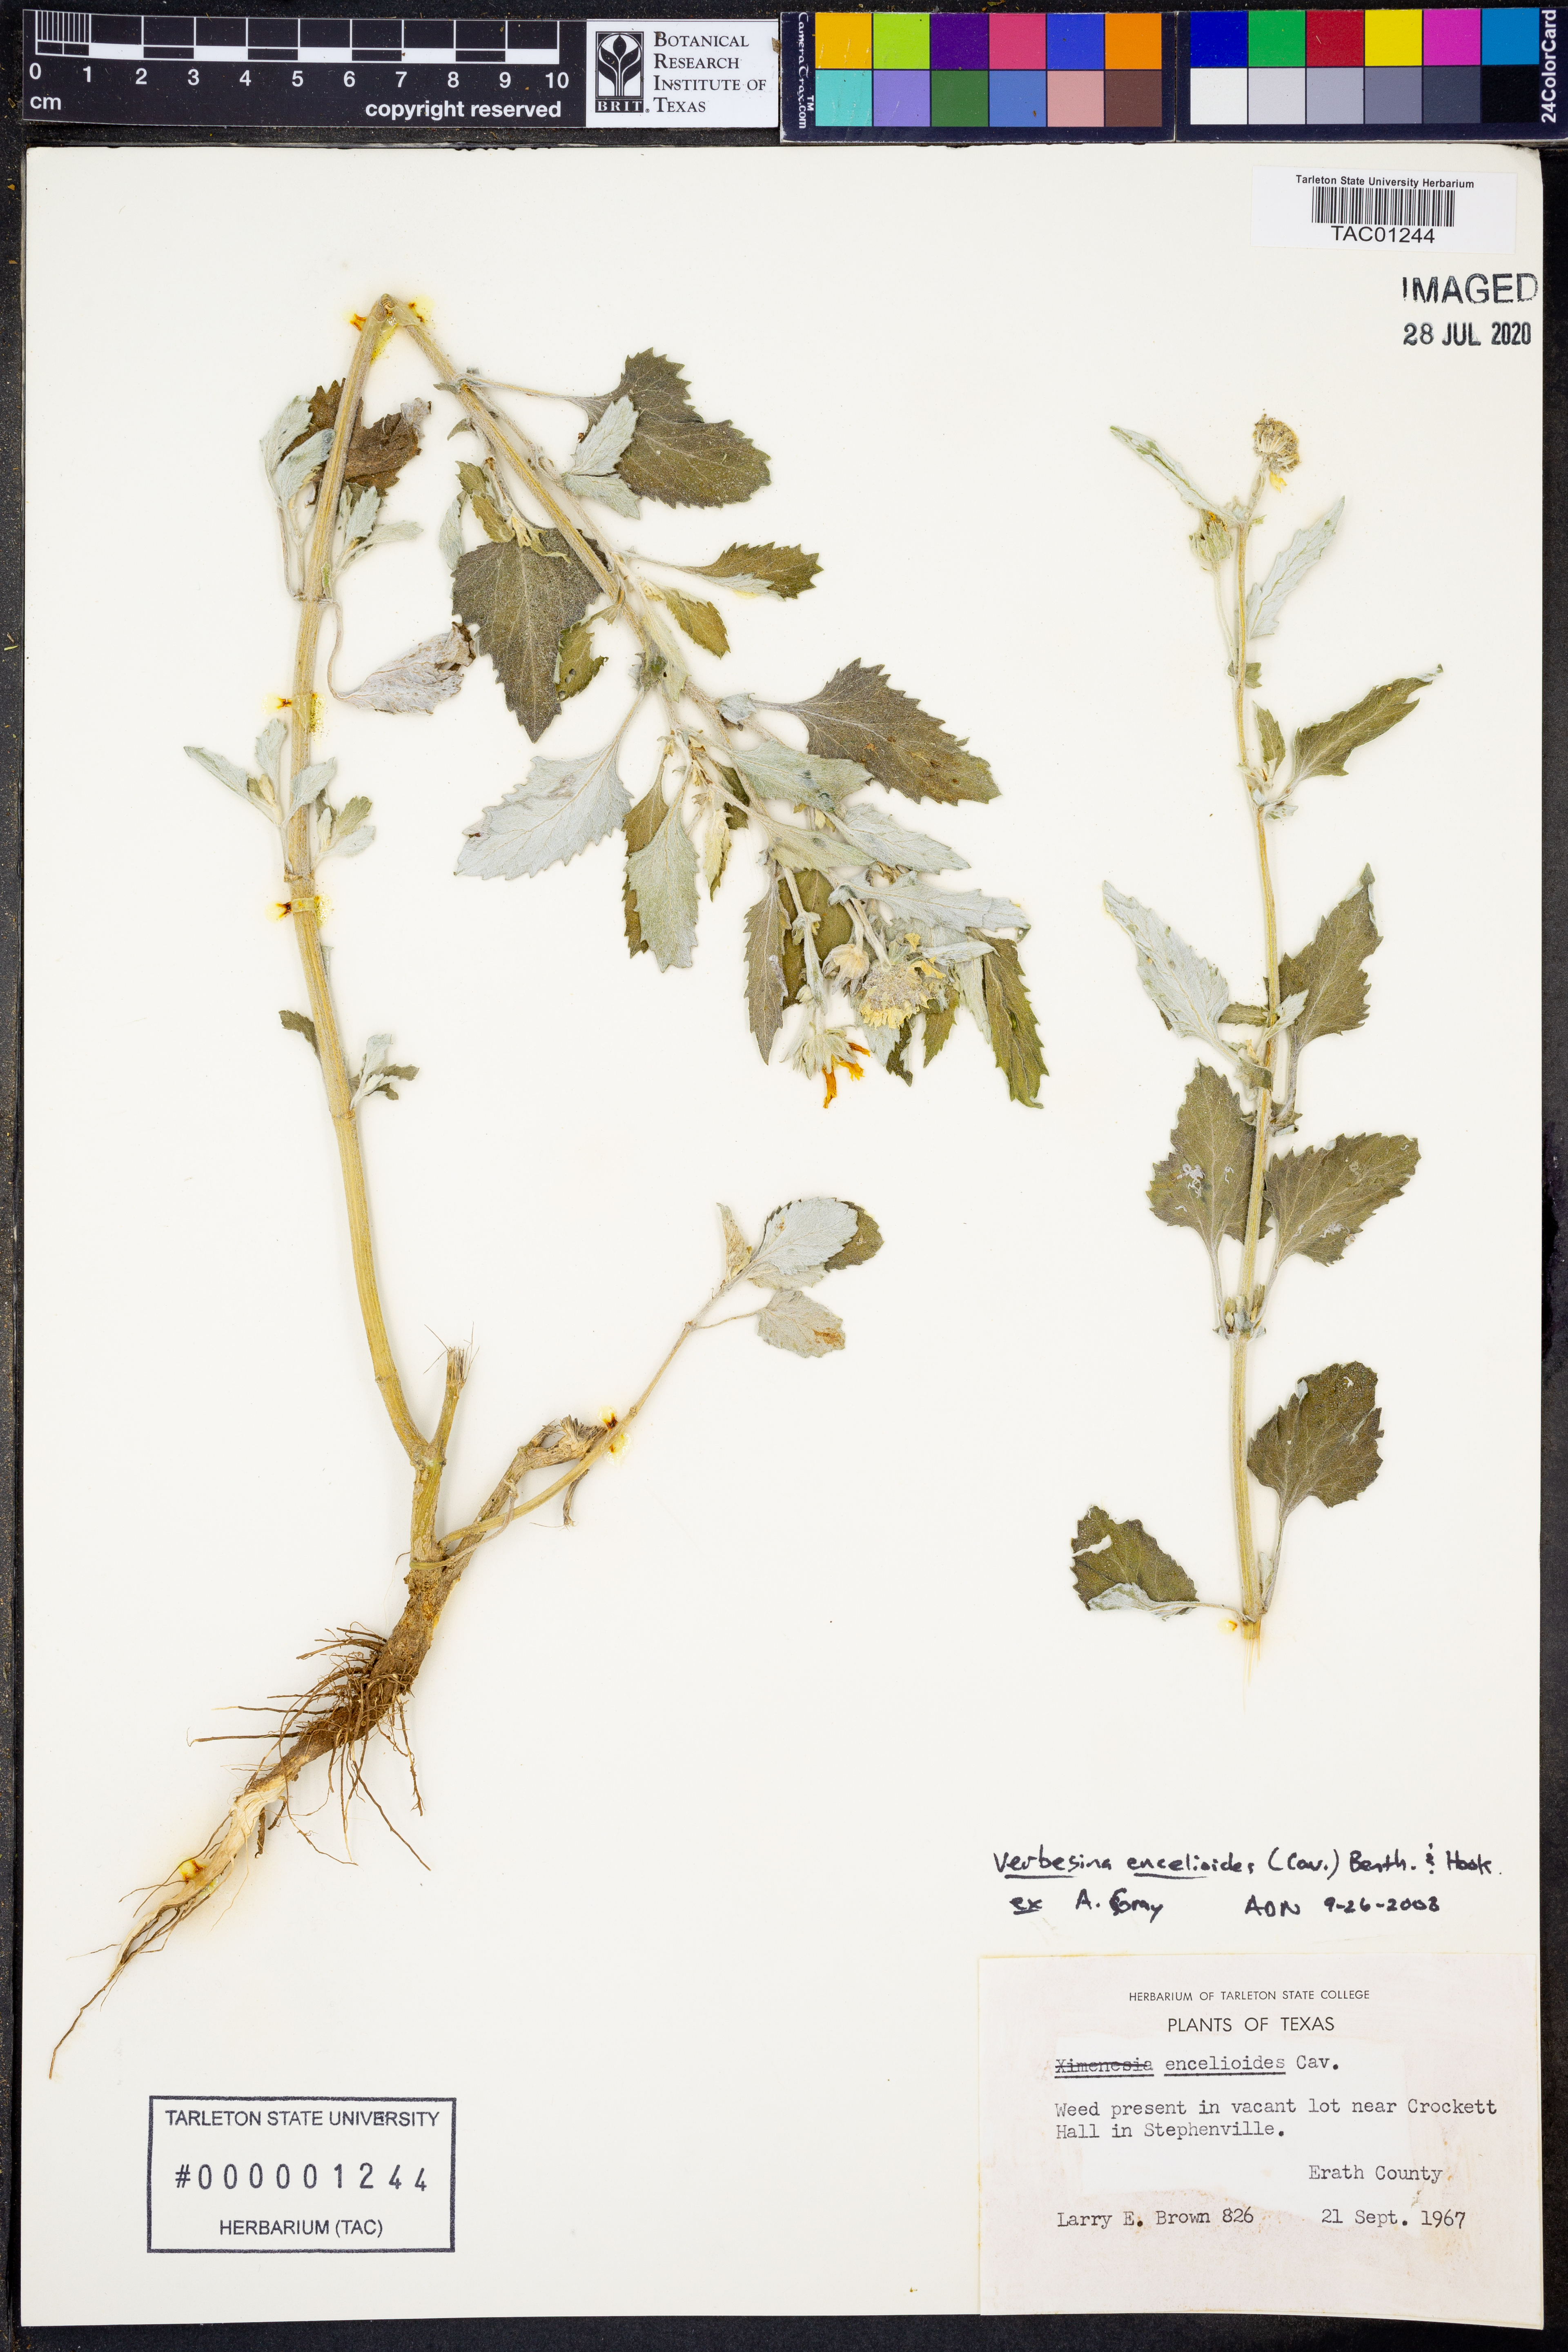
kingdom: Plantae
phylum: Tracheophyta
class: Magnoliopsida
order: Asterales
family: Asteraceae
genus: Verbesina
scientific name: Verbesina encelioides
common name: Golden crownbeard
